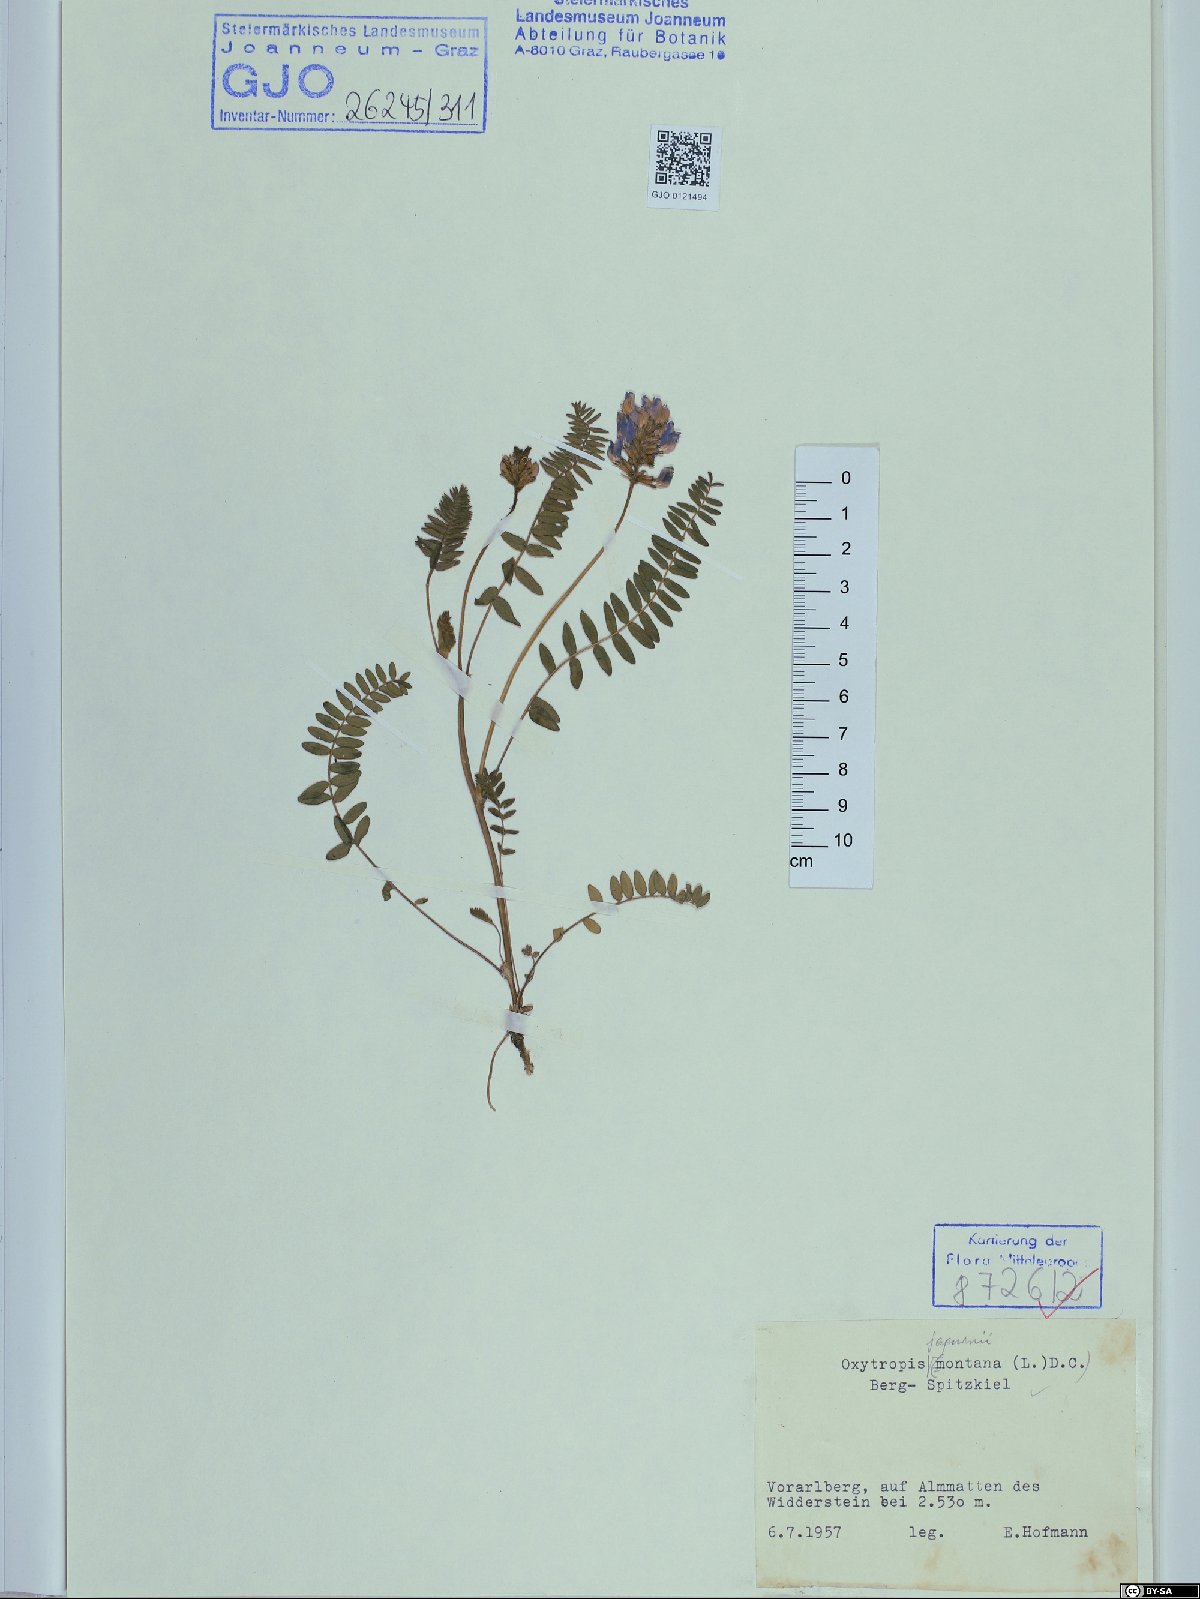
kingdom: Plantae
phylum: Tracheophyta
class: Magnoliopsida
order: Fabales
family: Fabaceae
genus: Oxytropis
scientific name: Oxytropis montana
